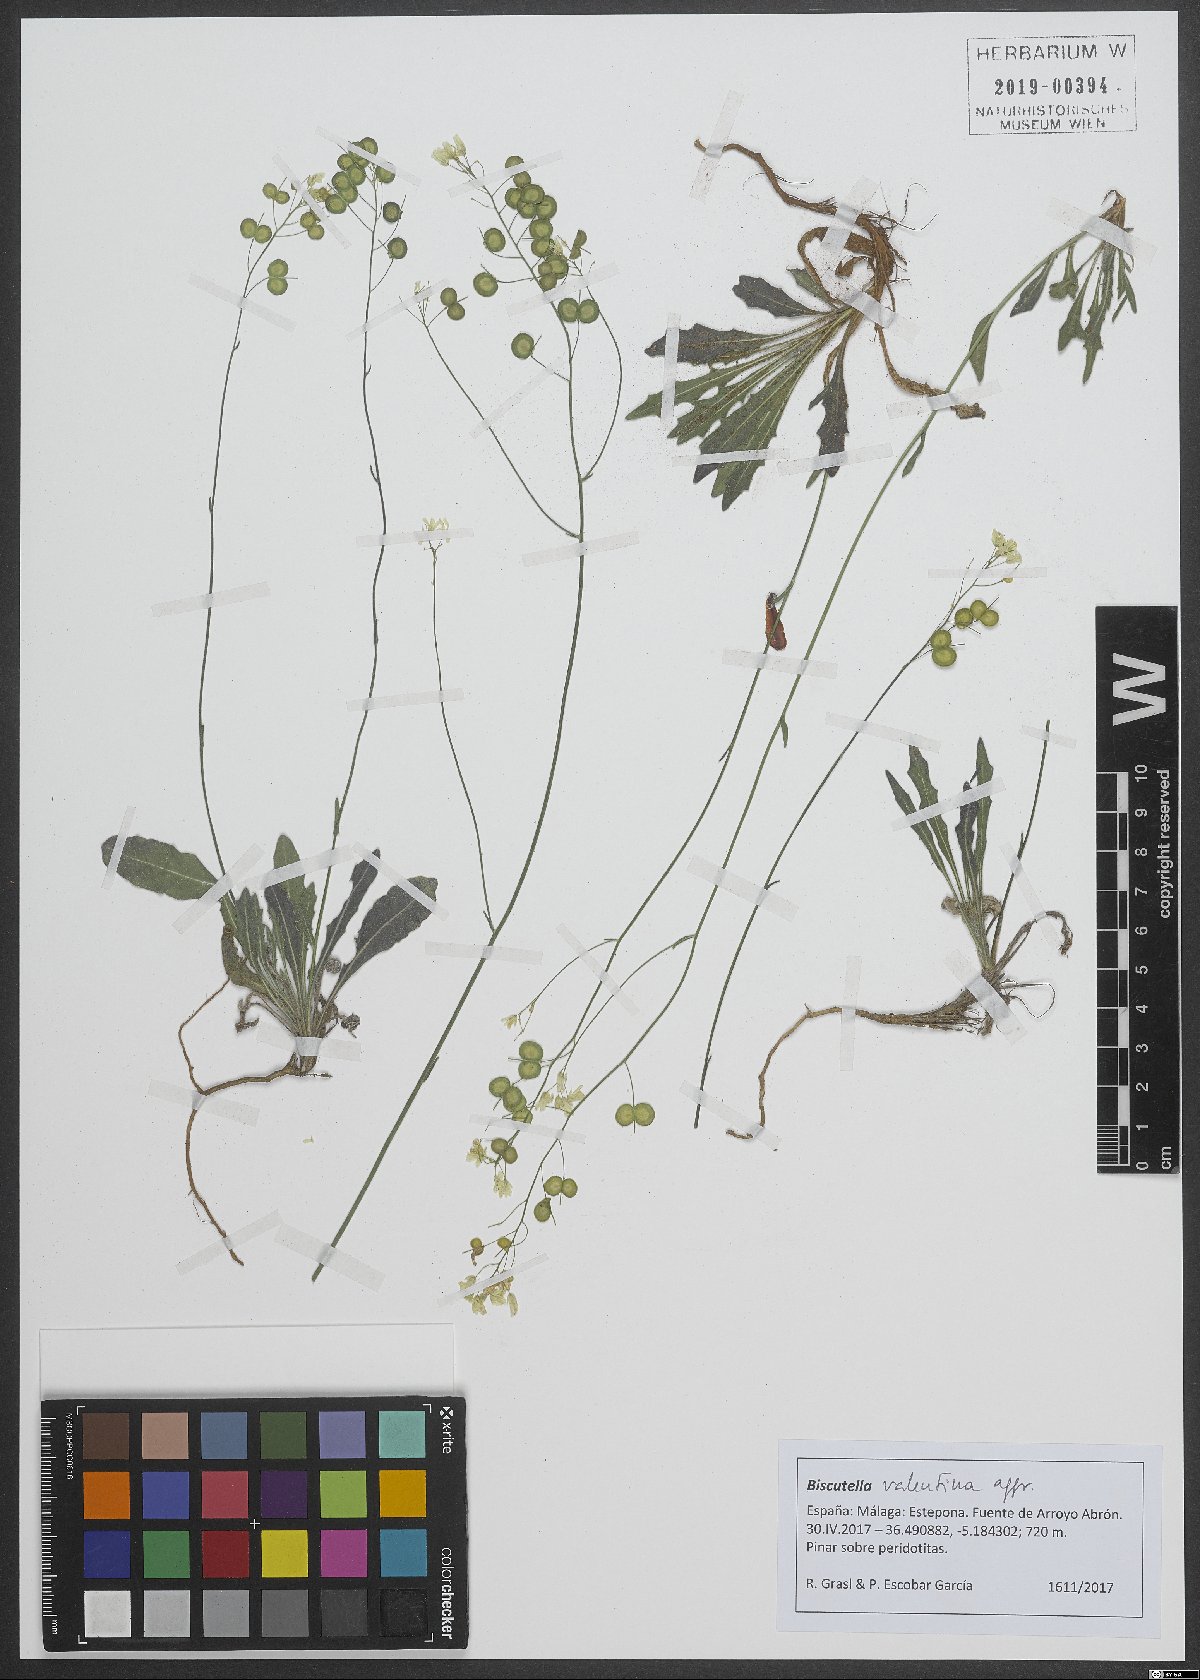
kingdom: Plantae
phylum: Tracheophyta
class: Magnoliopsida
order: Brassicales
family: Brassicaceae
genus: Biscutella
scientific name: Biscutella valentina
